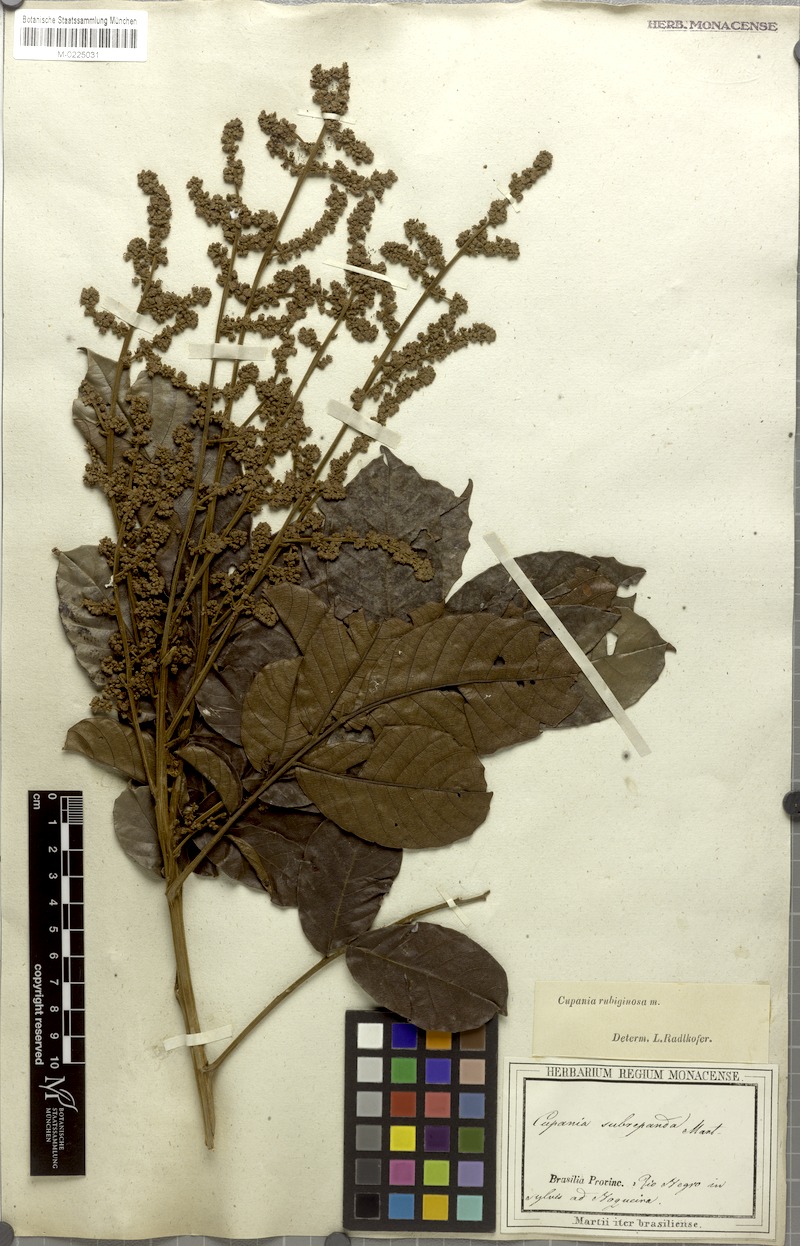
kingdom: Plantae
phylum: Tracheophyta
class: Magnoliopsida
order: Sapindales
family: Sapindaceae
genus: Cupania
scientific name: Cupania rubiginosa
